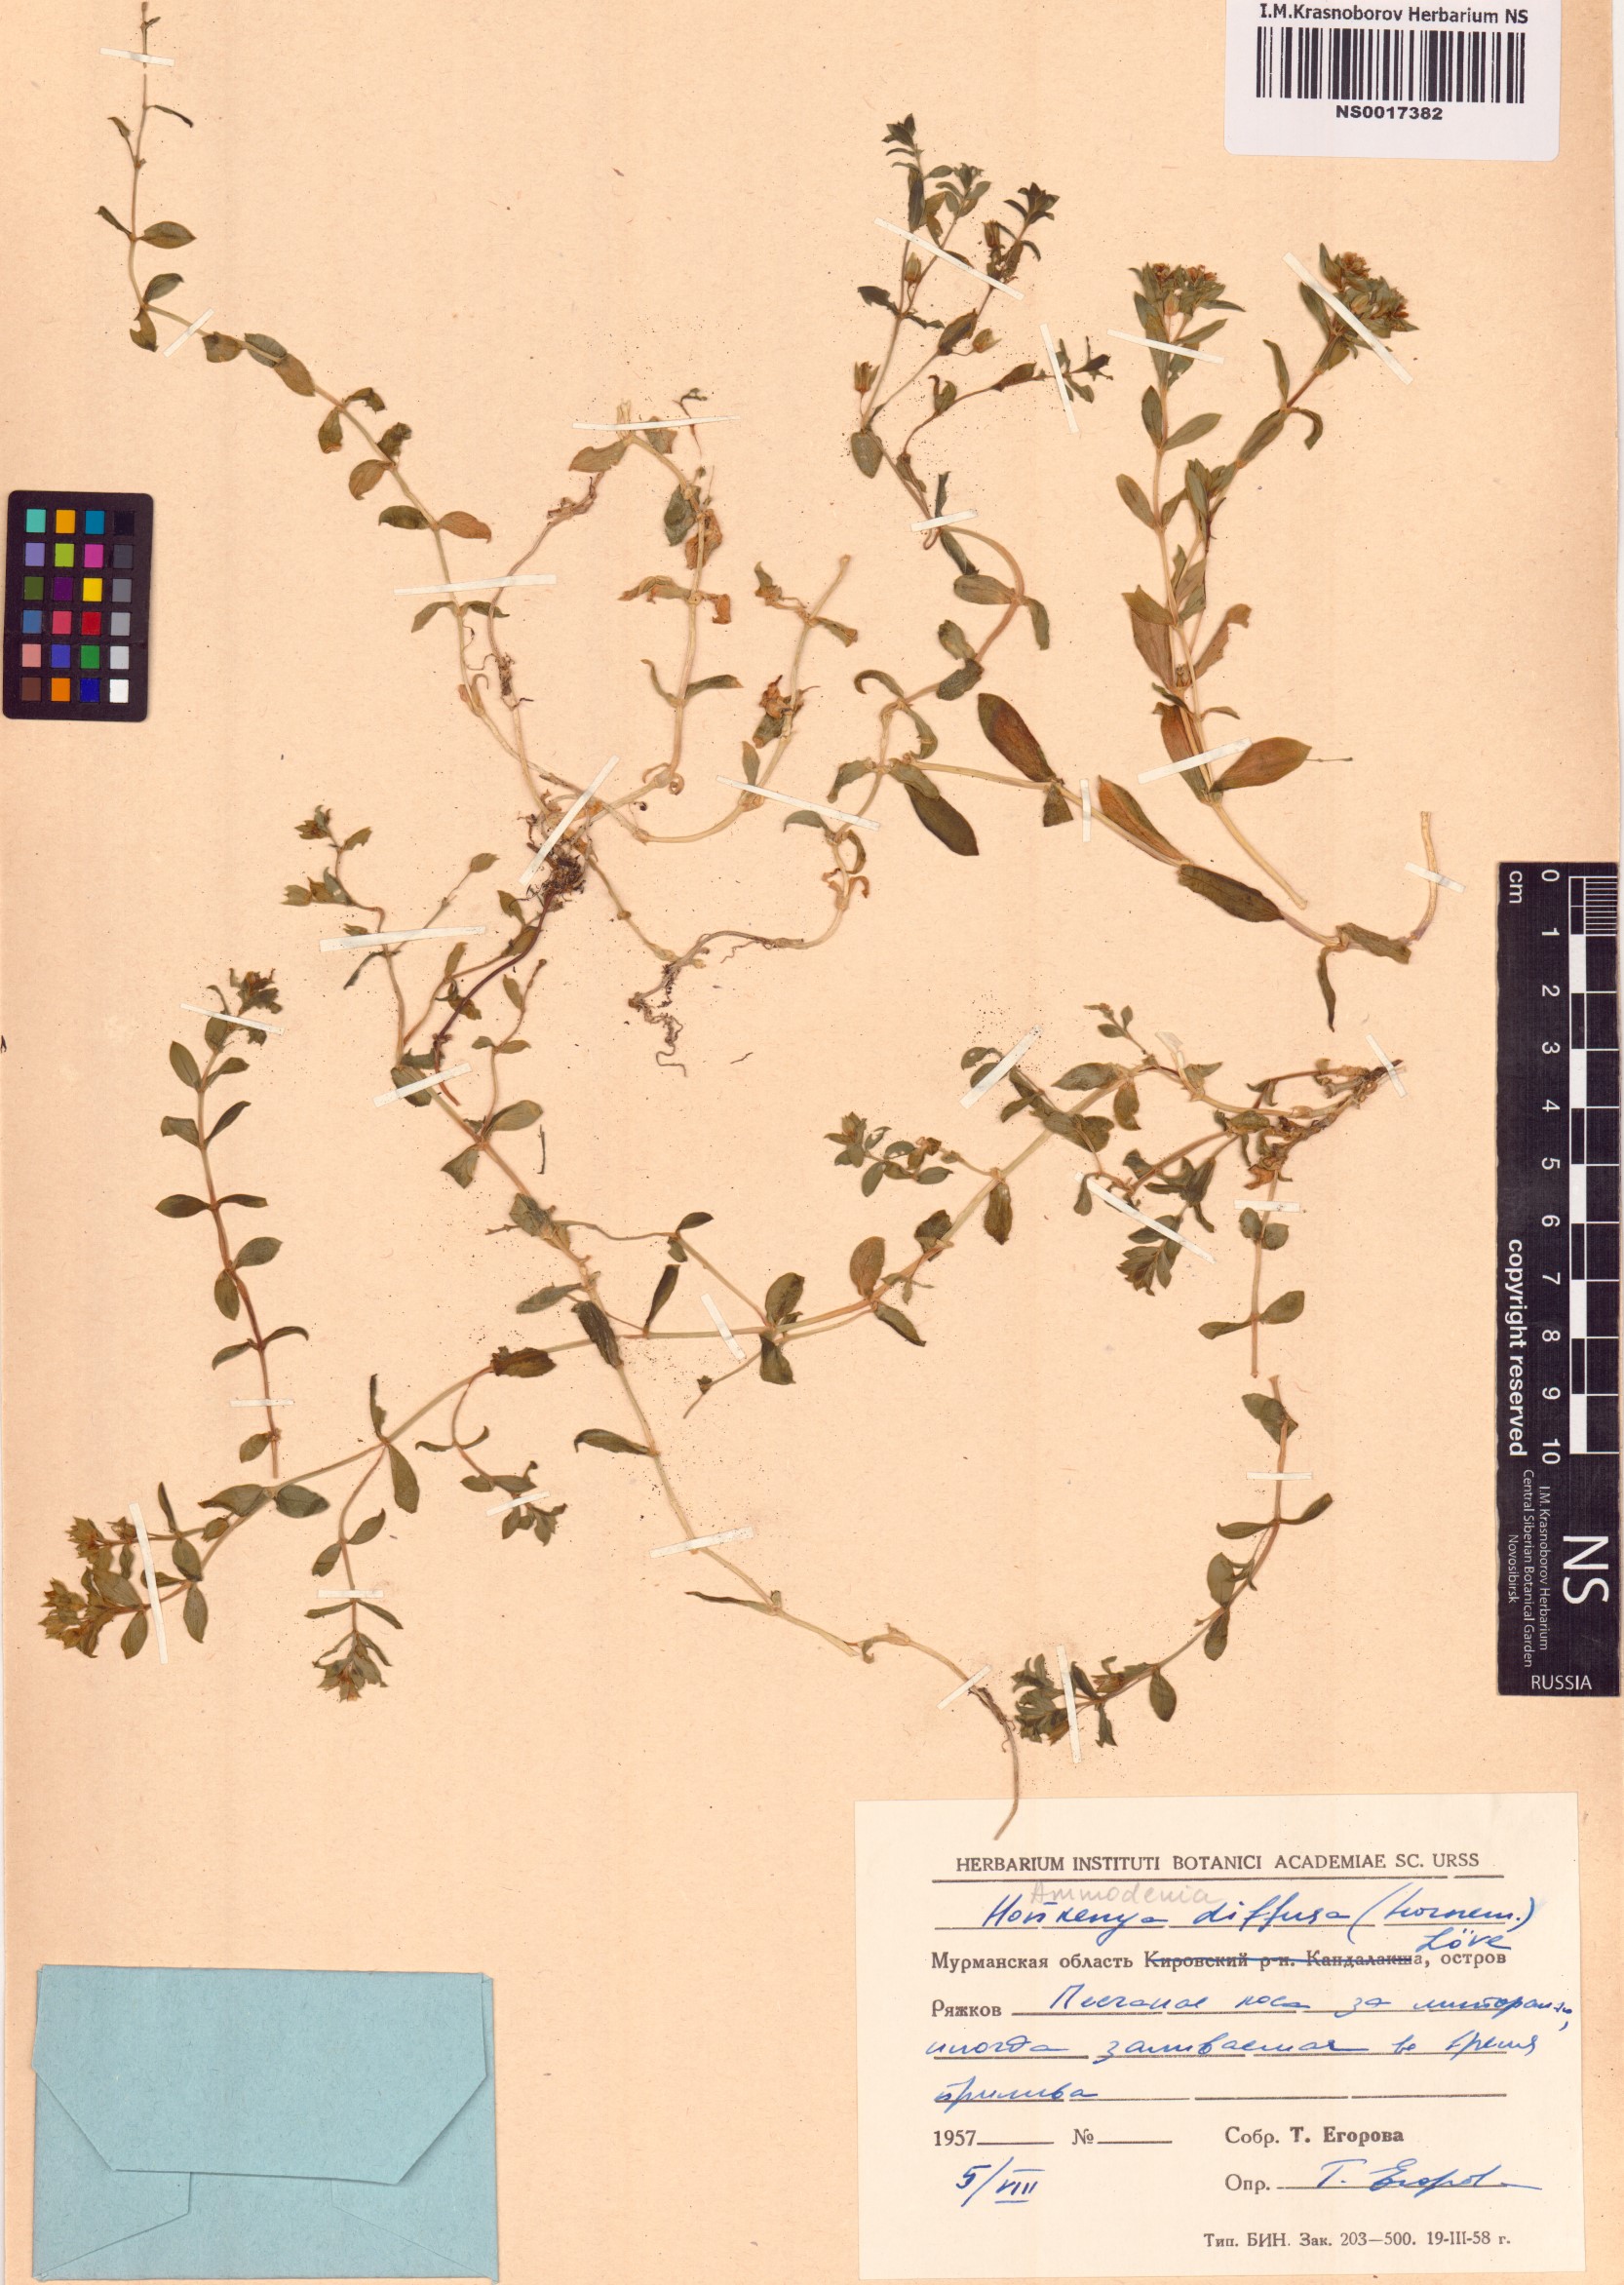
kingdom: Plantae
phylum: Tracheophyta
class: Magnoliopsida
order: Caryophyllales
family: Caryophyllaceae
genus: Honckenya
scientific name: Honckenya peploides
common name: Sea sandwort
